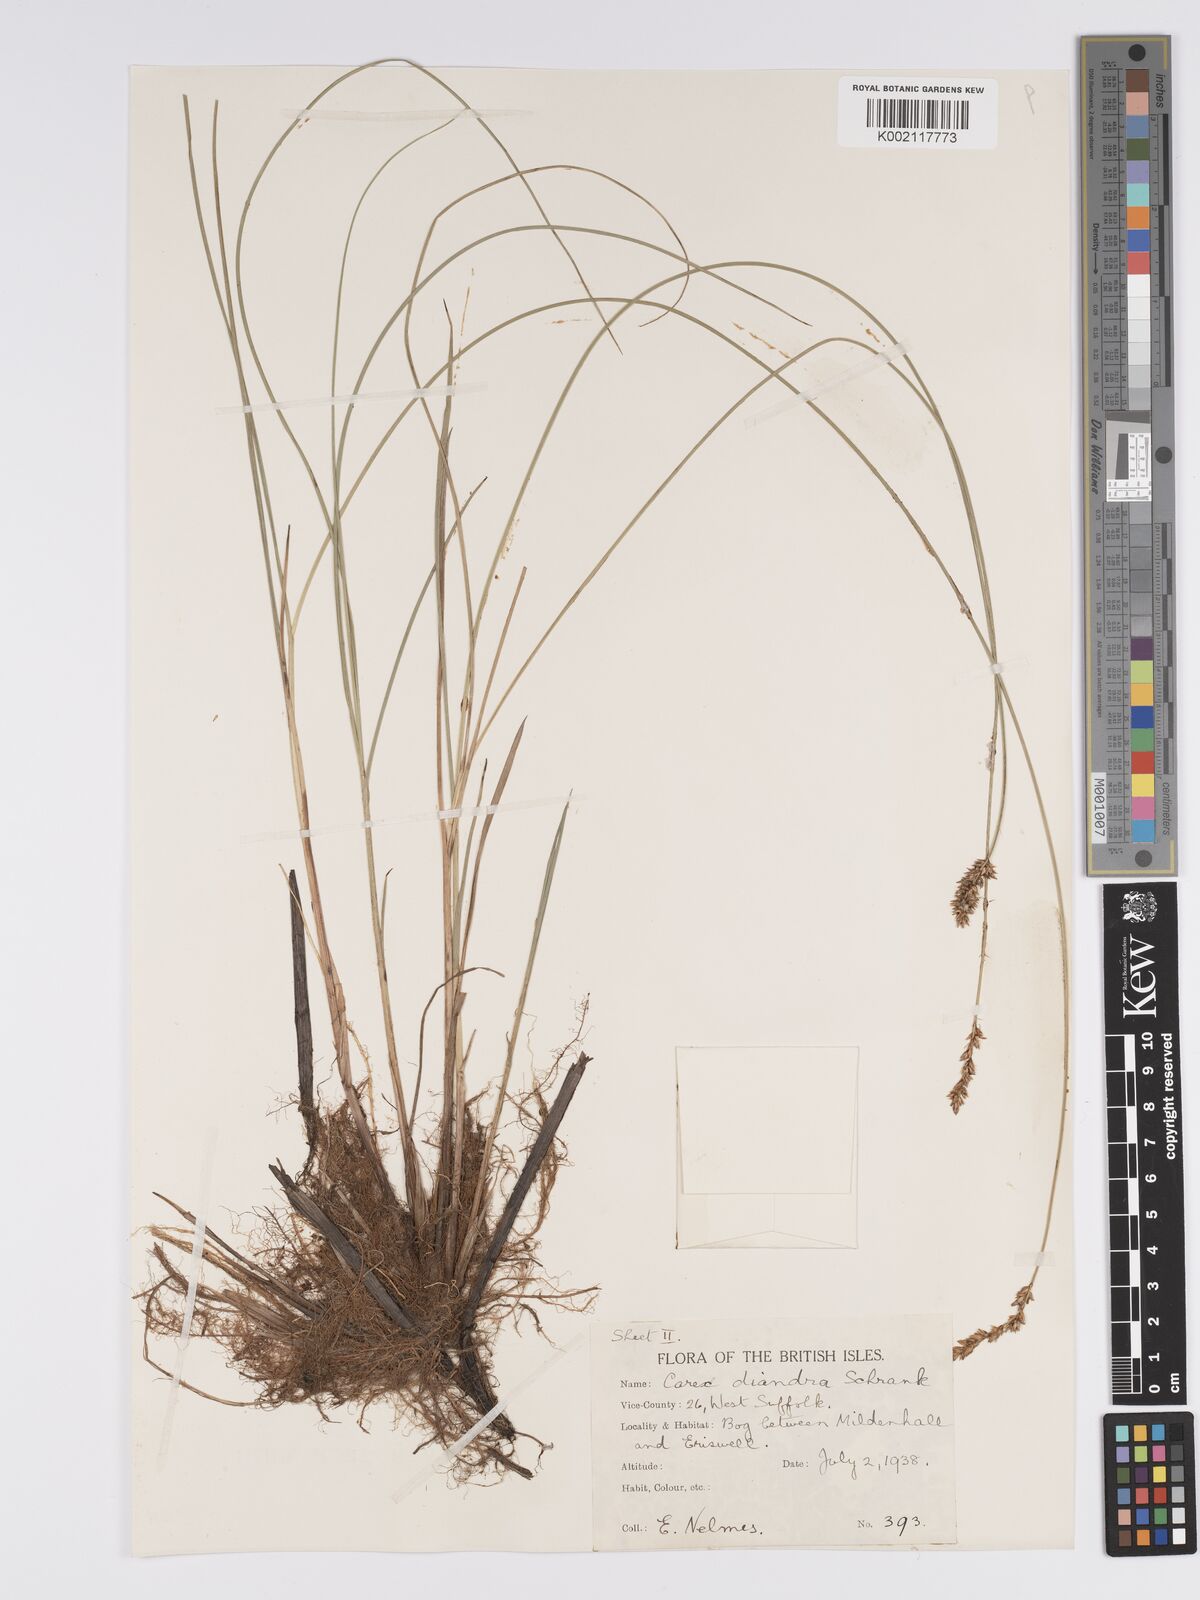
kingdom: Plantae
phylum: Tracheophyta
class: Liliopsida
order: Poales
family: Cyperaceae
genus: Carex
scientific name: Carex diandra
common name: Lesser tussock-sedge
